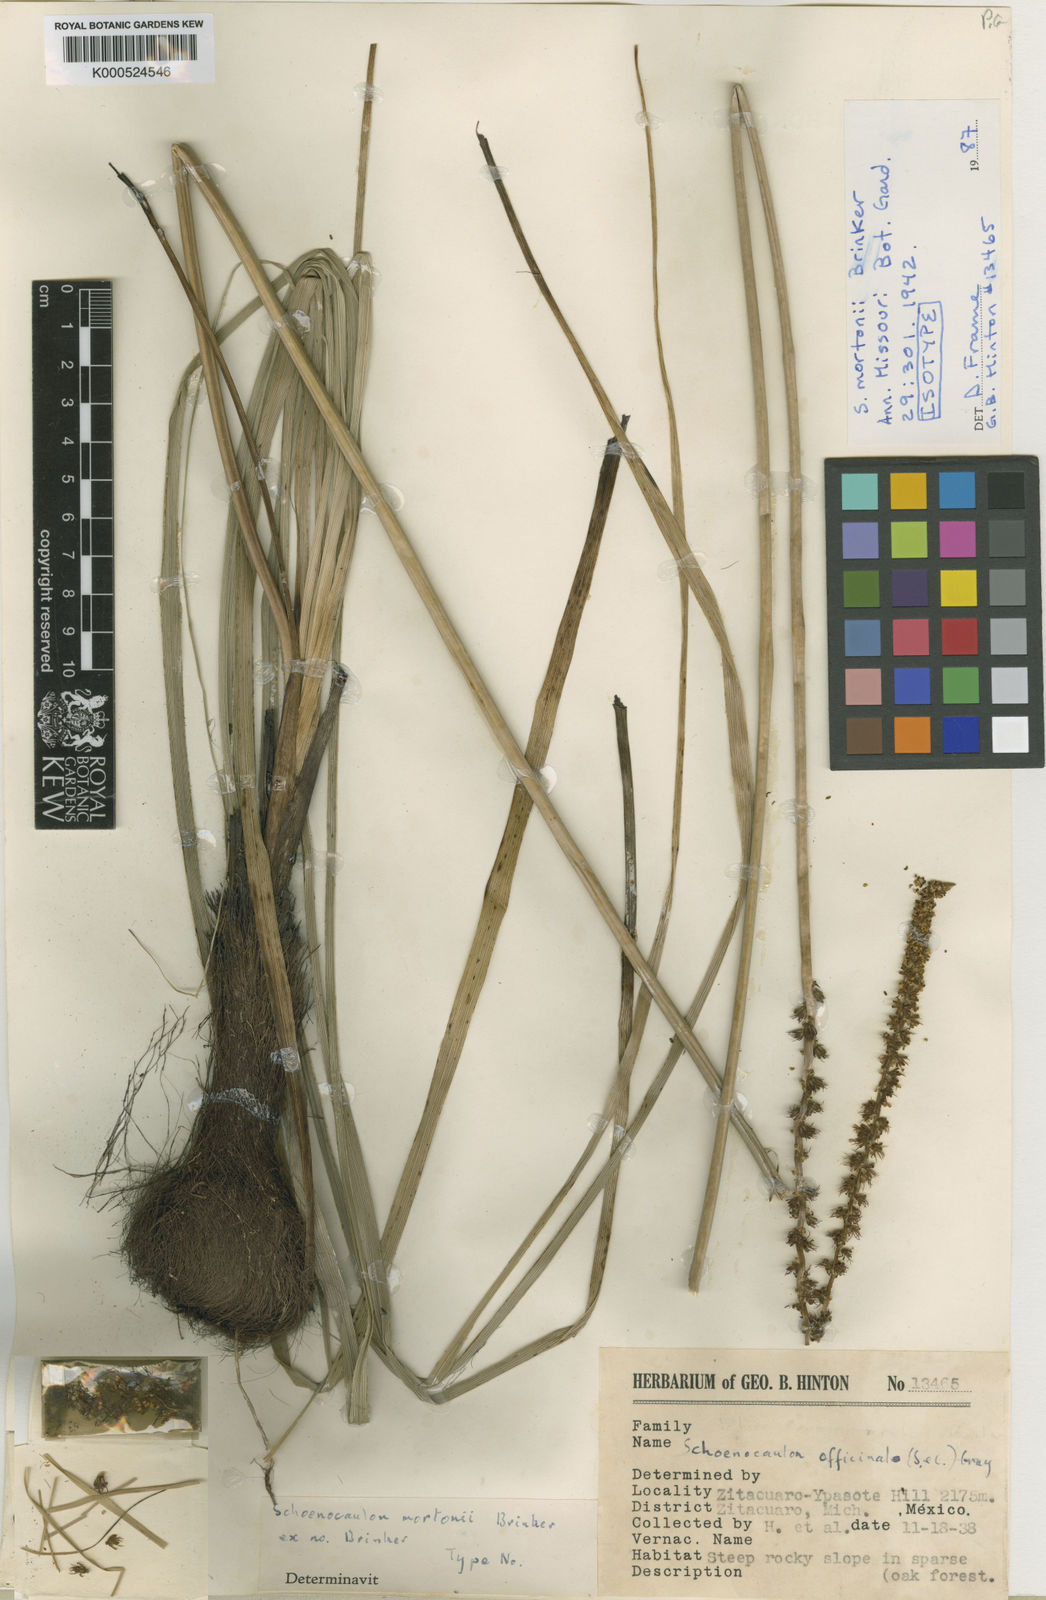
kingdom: Plantae
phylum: Tracheophyta
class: Liliopsida
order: Liliales
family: Melanthiaceae
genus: Schoenocaulon
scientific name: Schoenocaulon mortonii
